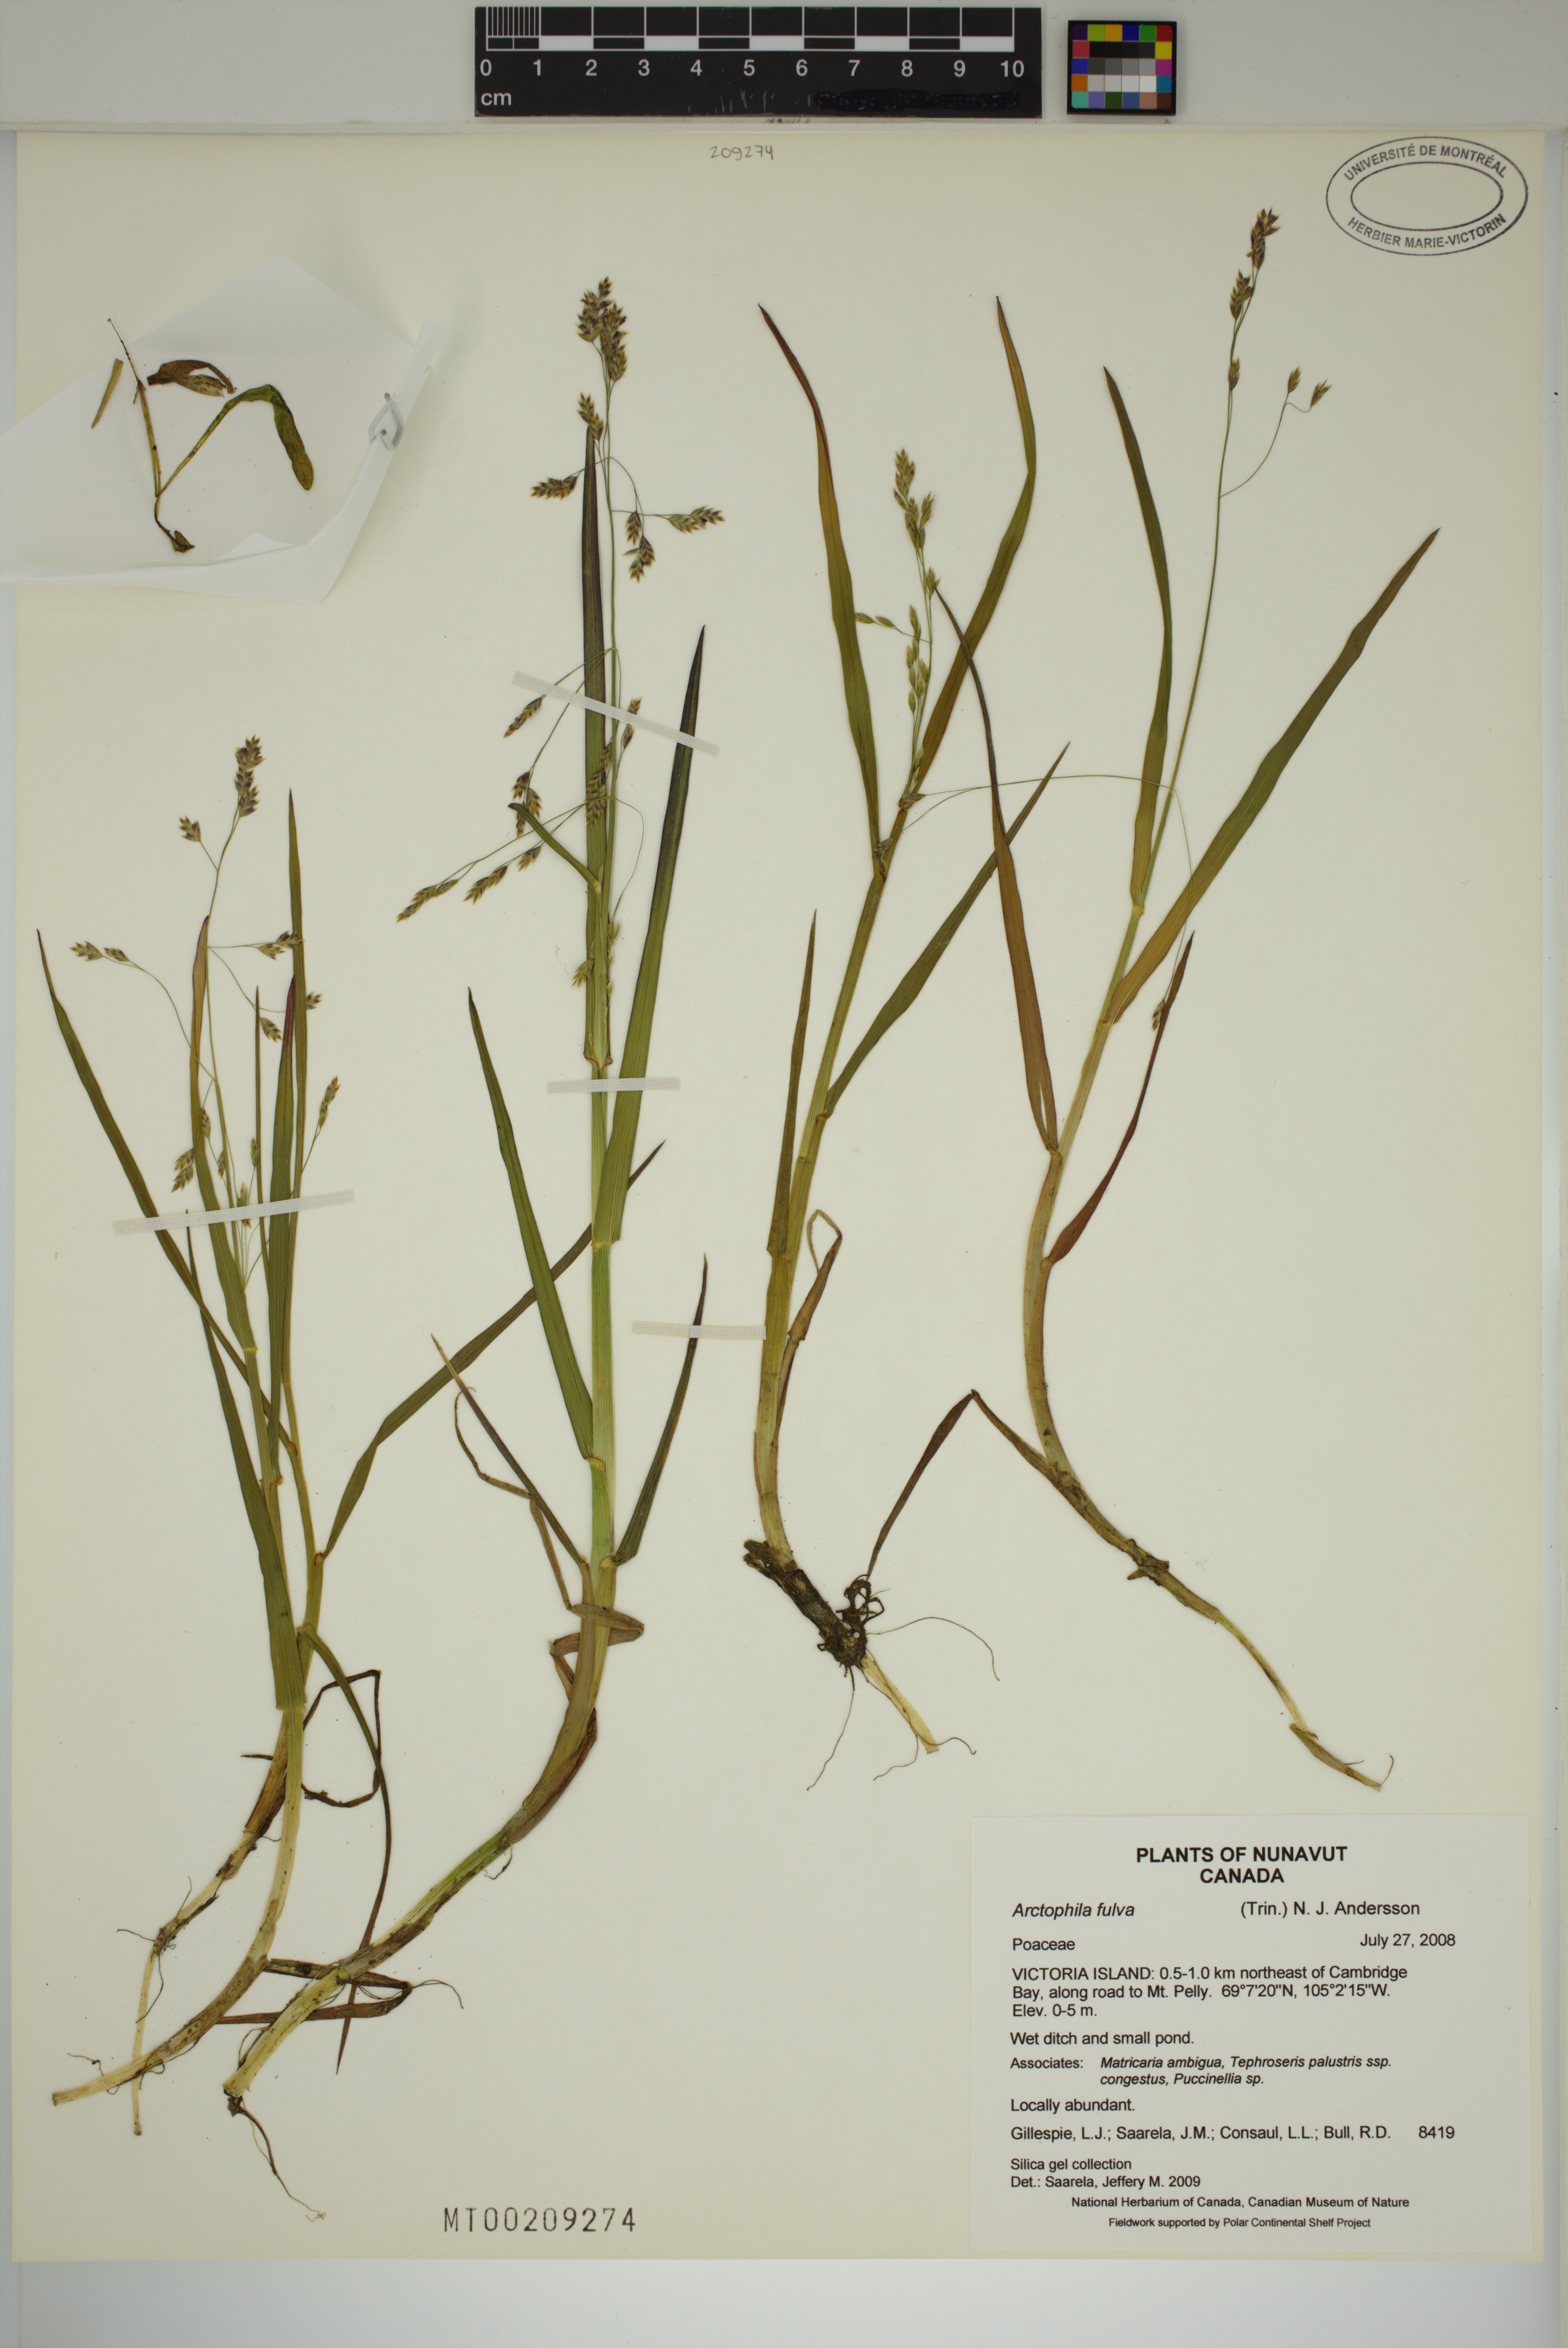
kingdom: Plantae
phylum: Tracheophyta
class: Liliopsida
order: Poales
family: Poaceae
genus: Dupontia
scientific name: Dupontia fulva
